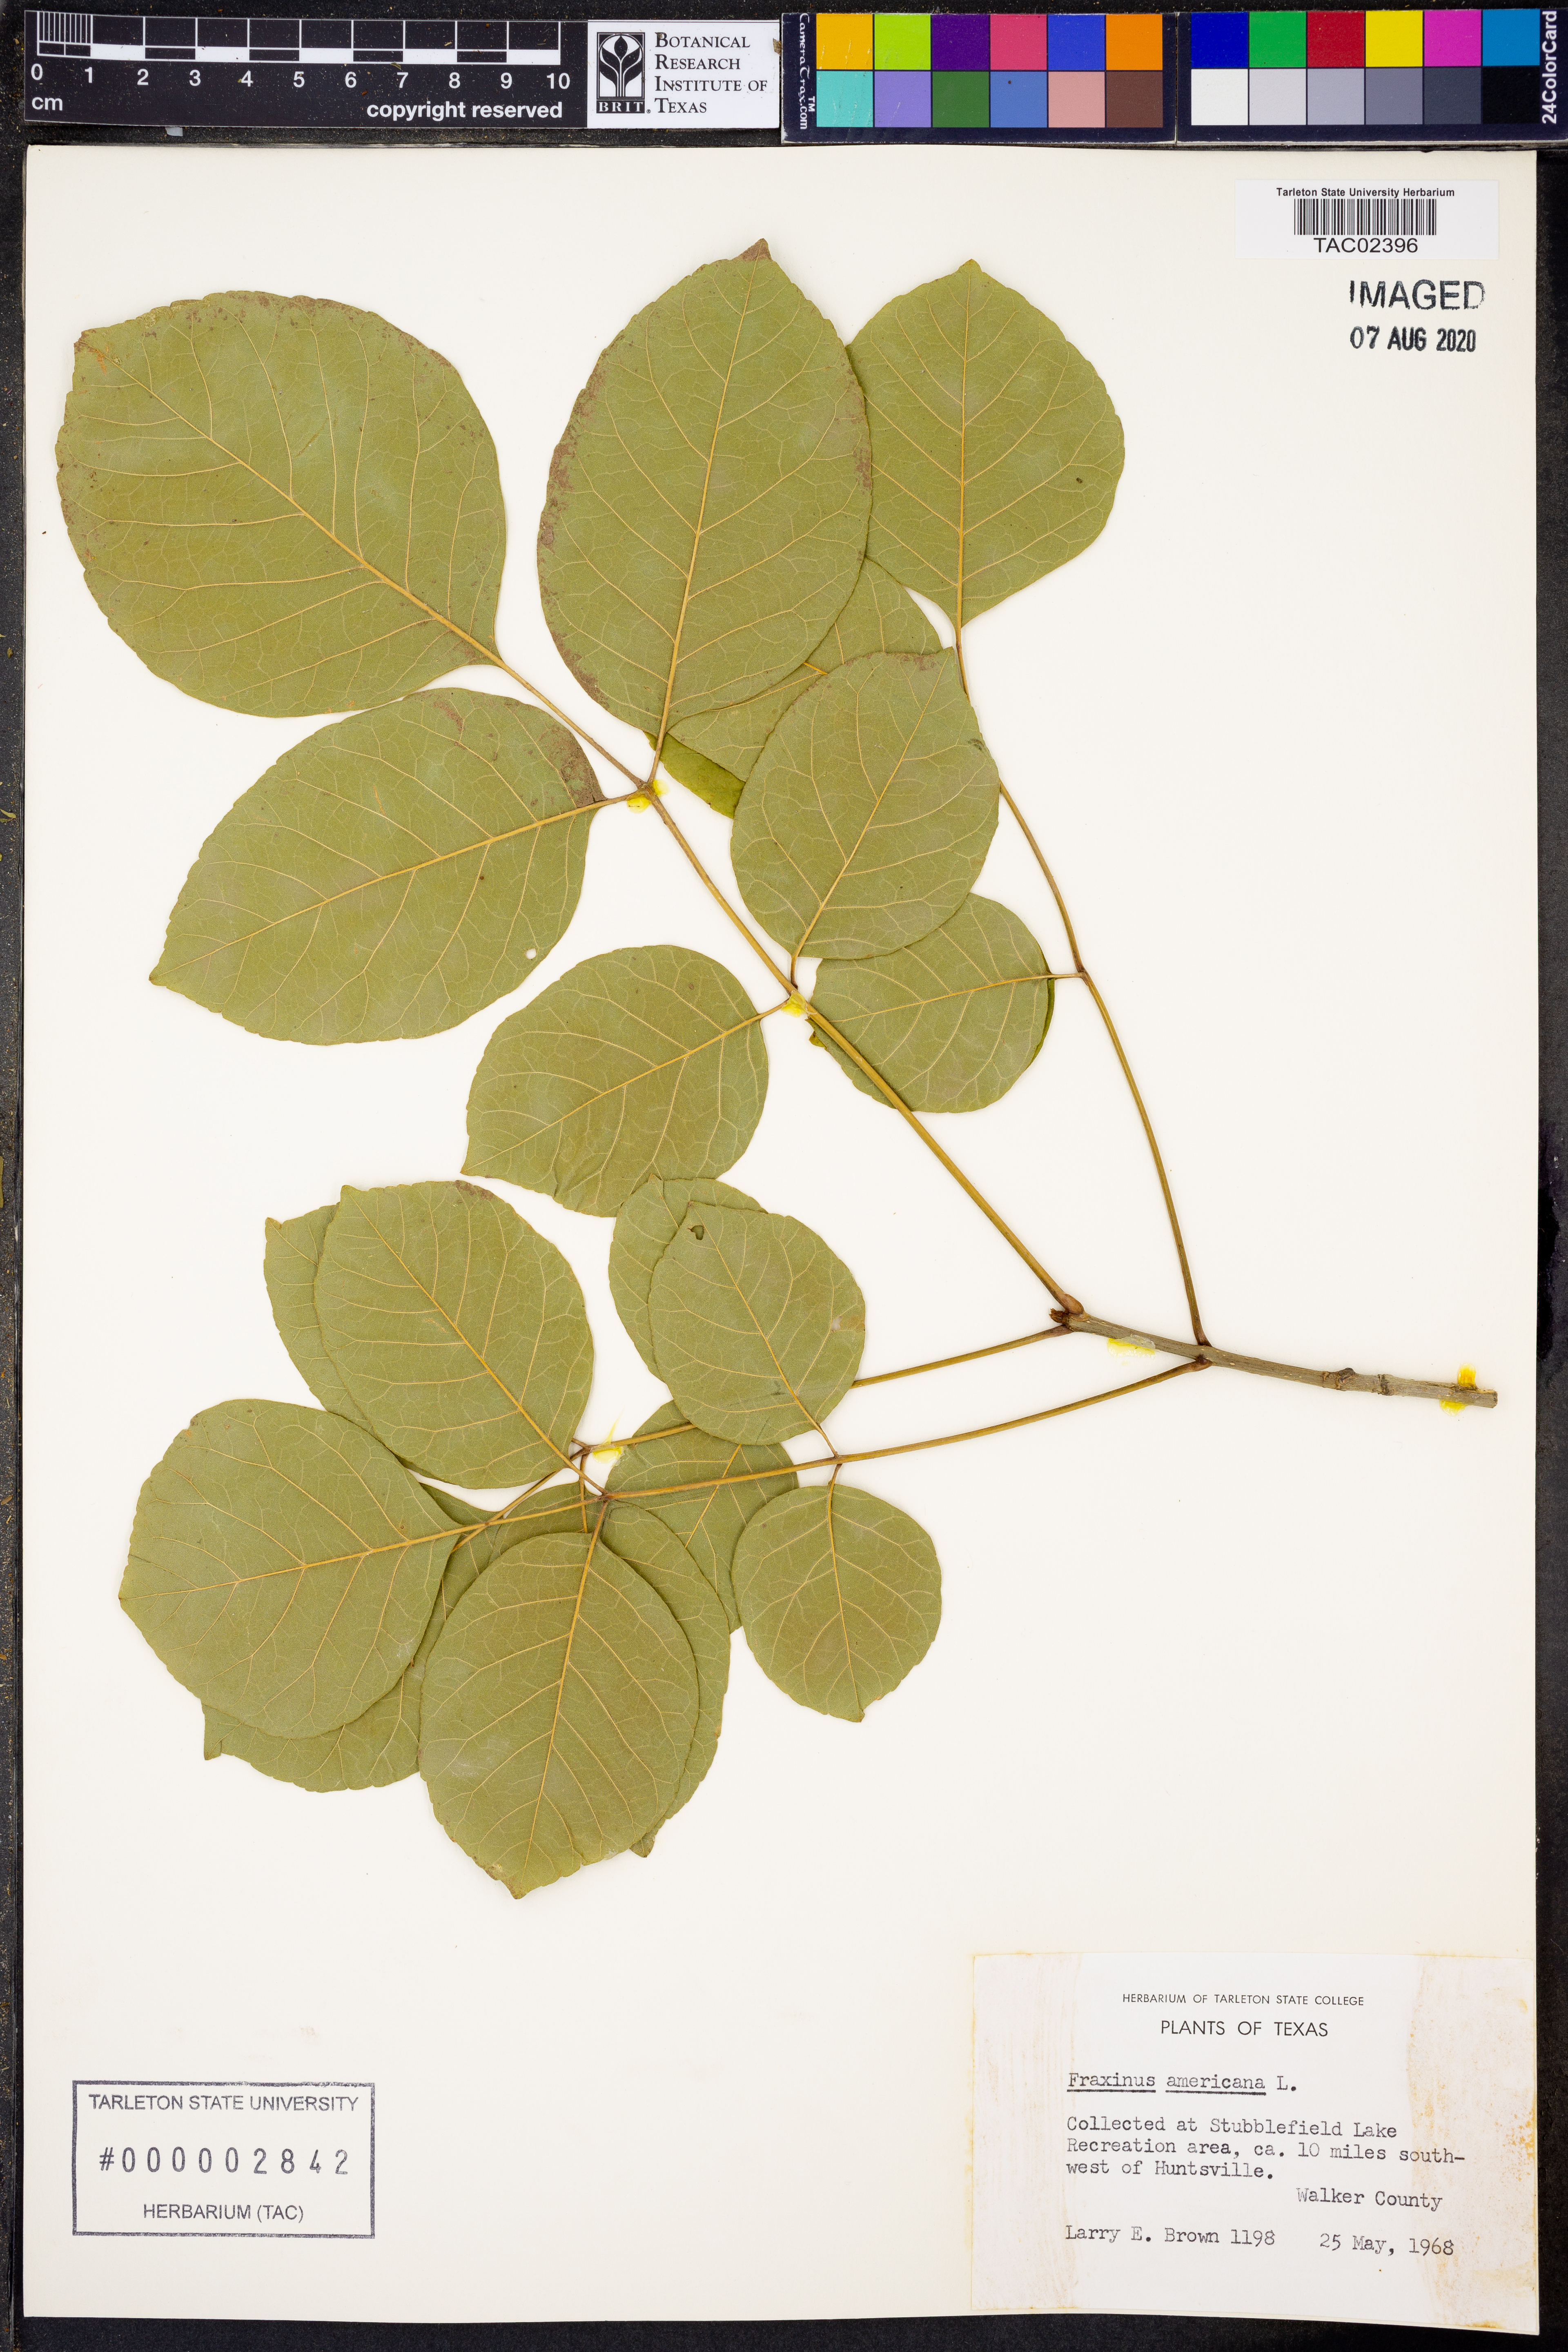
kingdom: Plantae
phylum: Tracheophyta
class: Magnoliopsida
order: Lamiales
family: Oleaceae
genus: Fraxinus
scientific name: Fraxinus americana
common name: White ash
